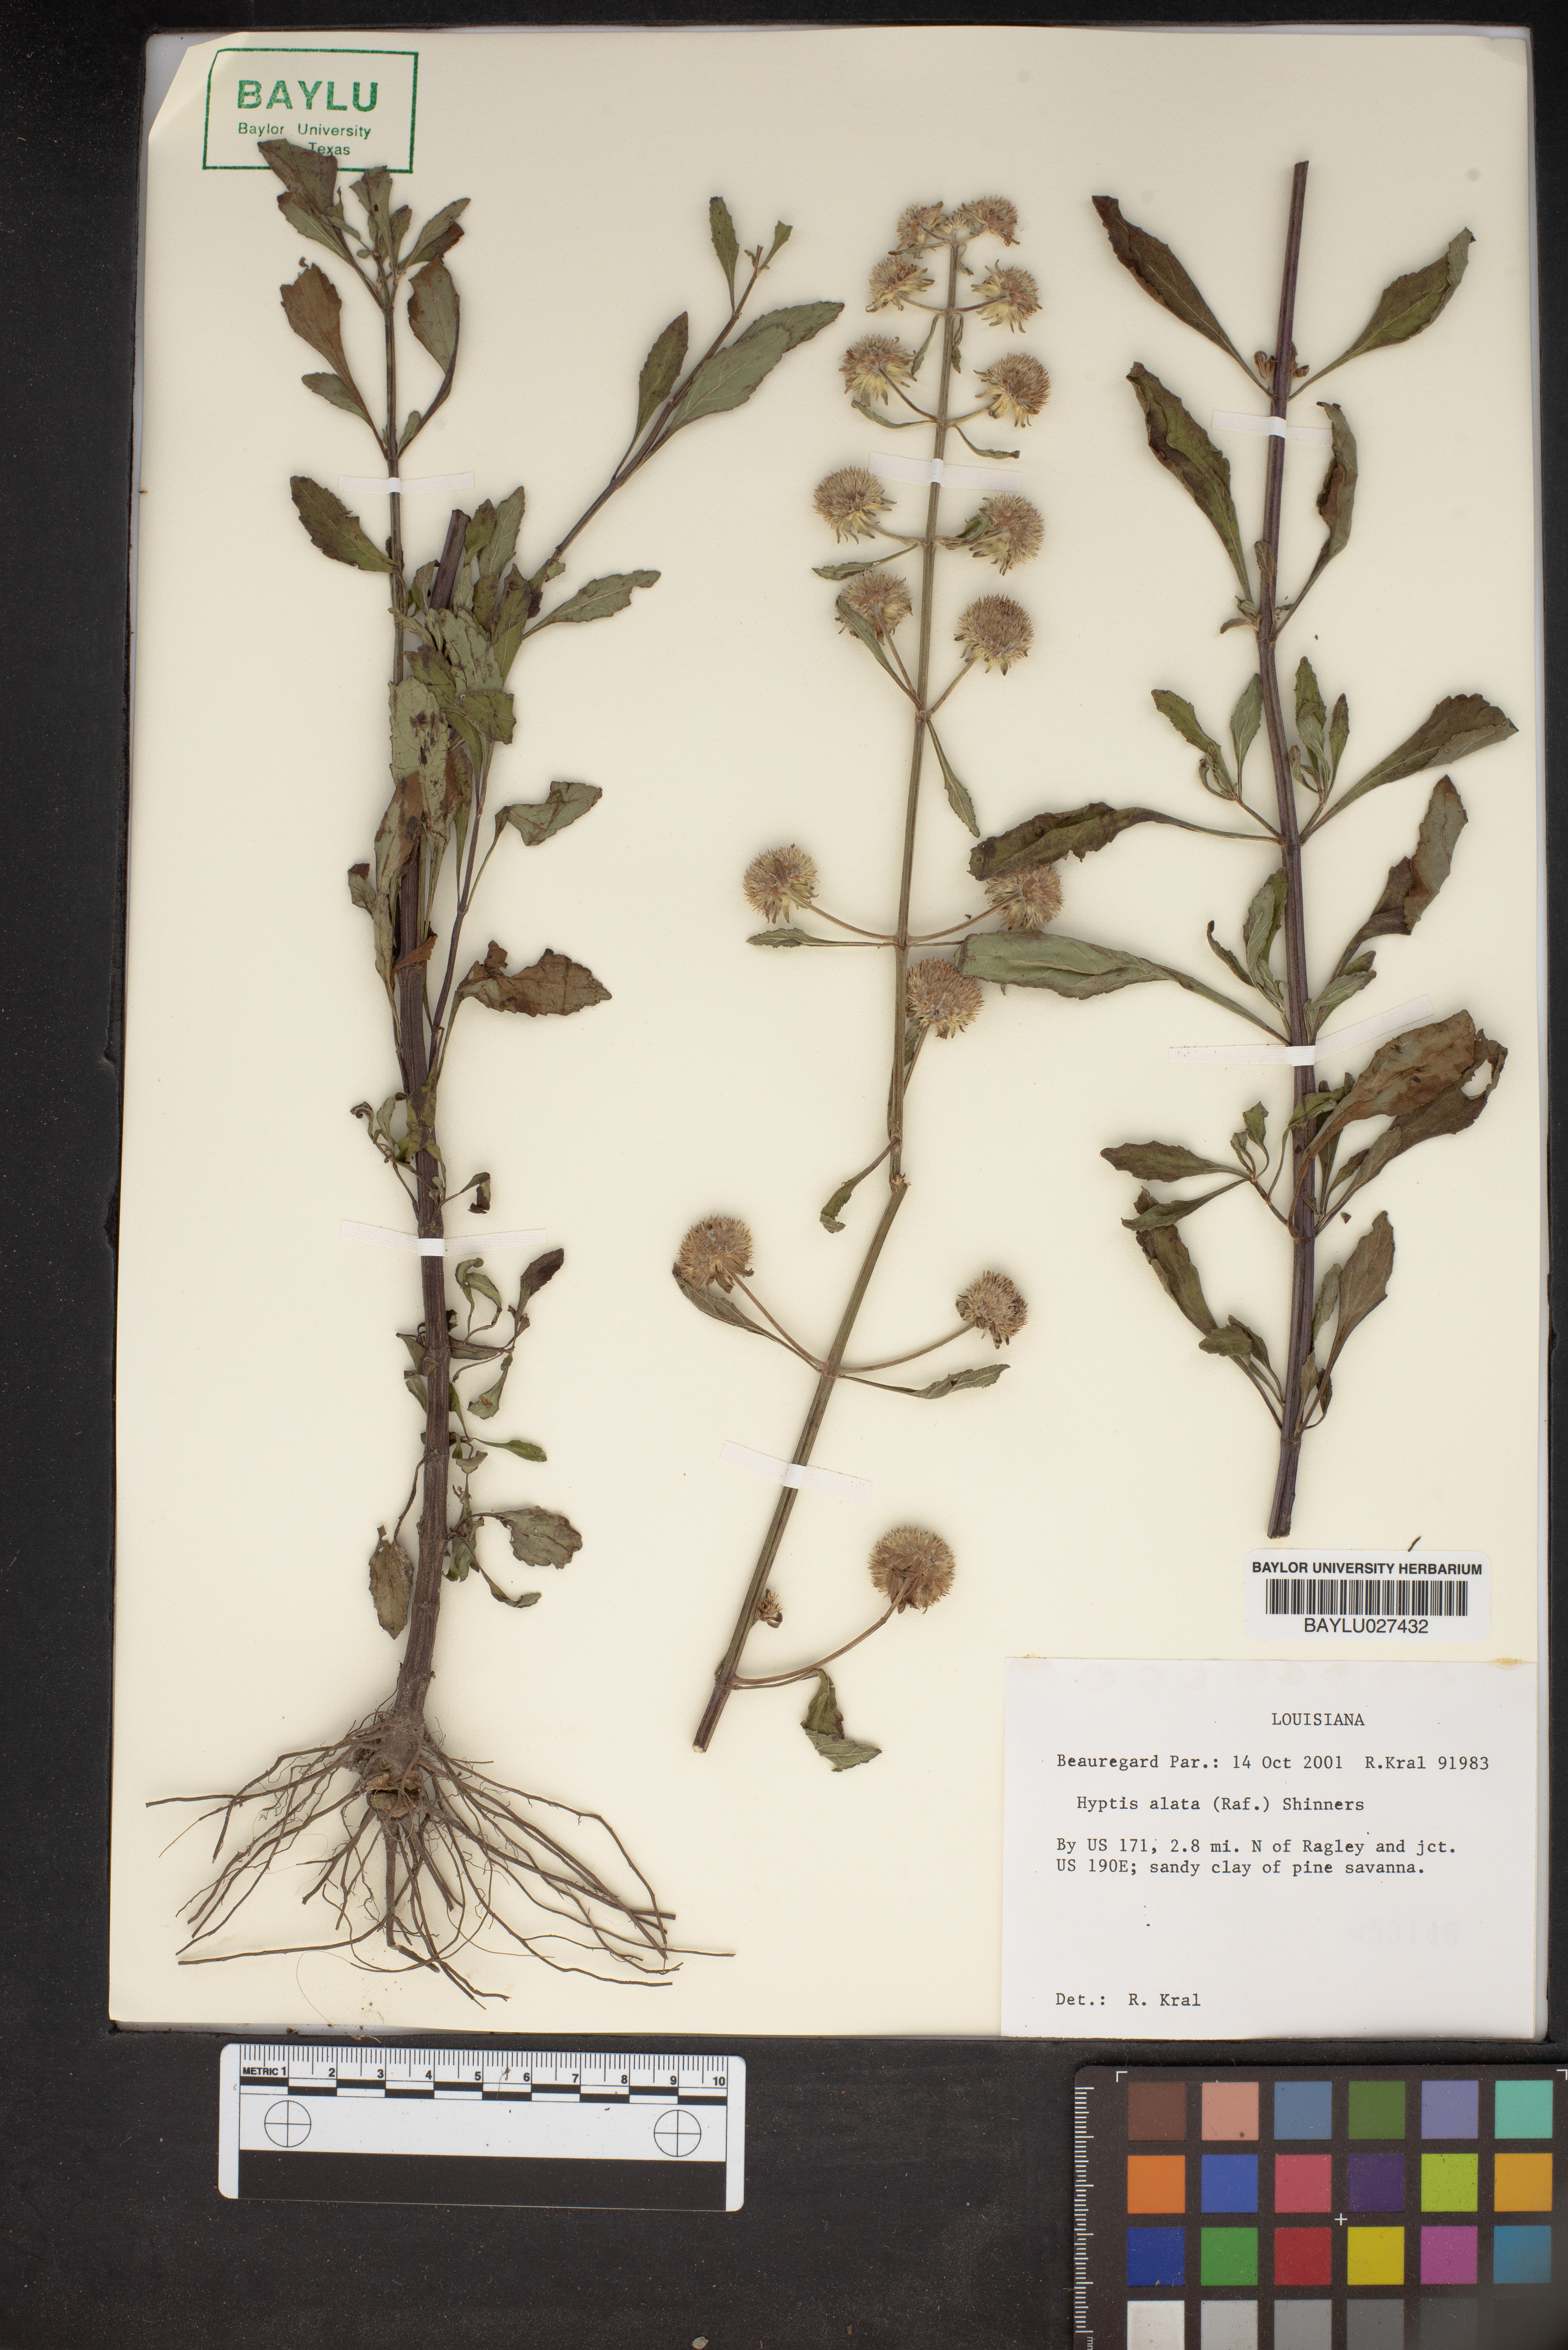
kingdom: Plantae
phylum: Tracheophyta
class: Magnoliopsida
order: Lamiales
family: Lamiaceae
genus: Hyptis
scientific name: Hyptis alata
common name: Cluster bush-mint
